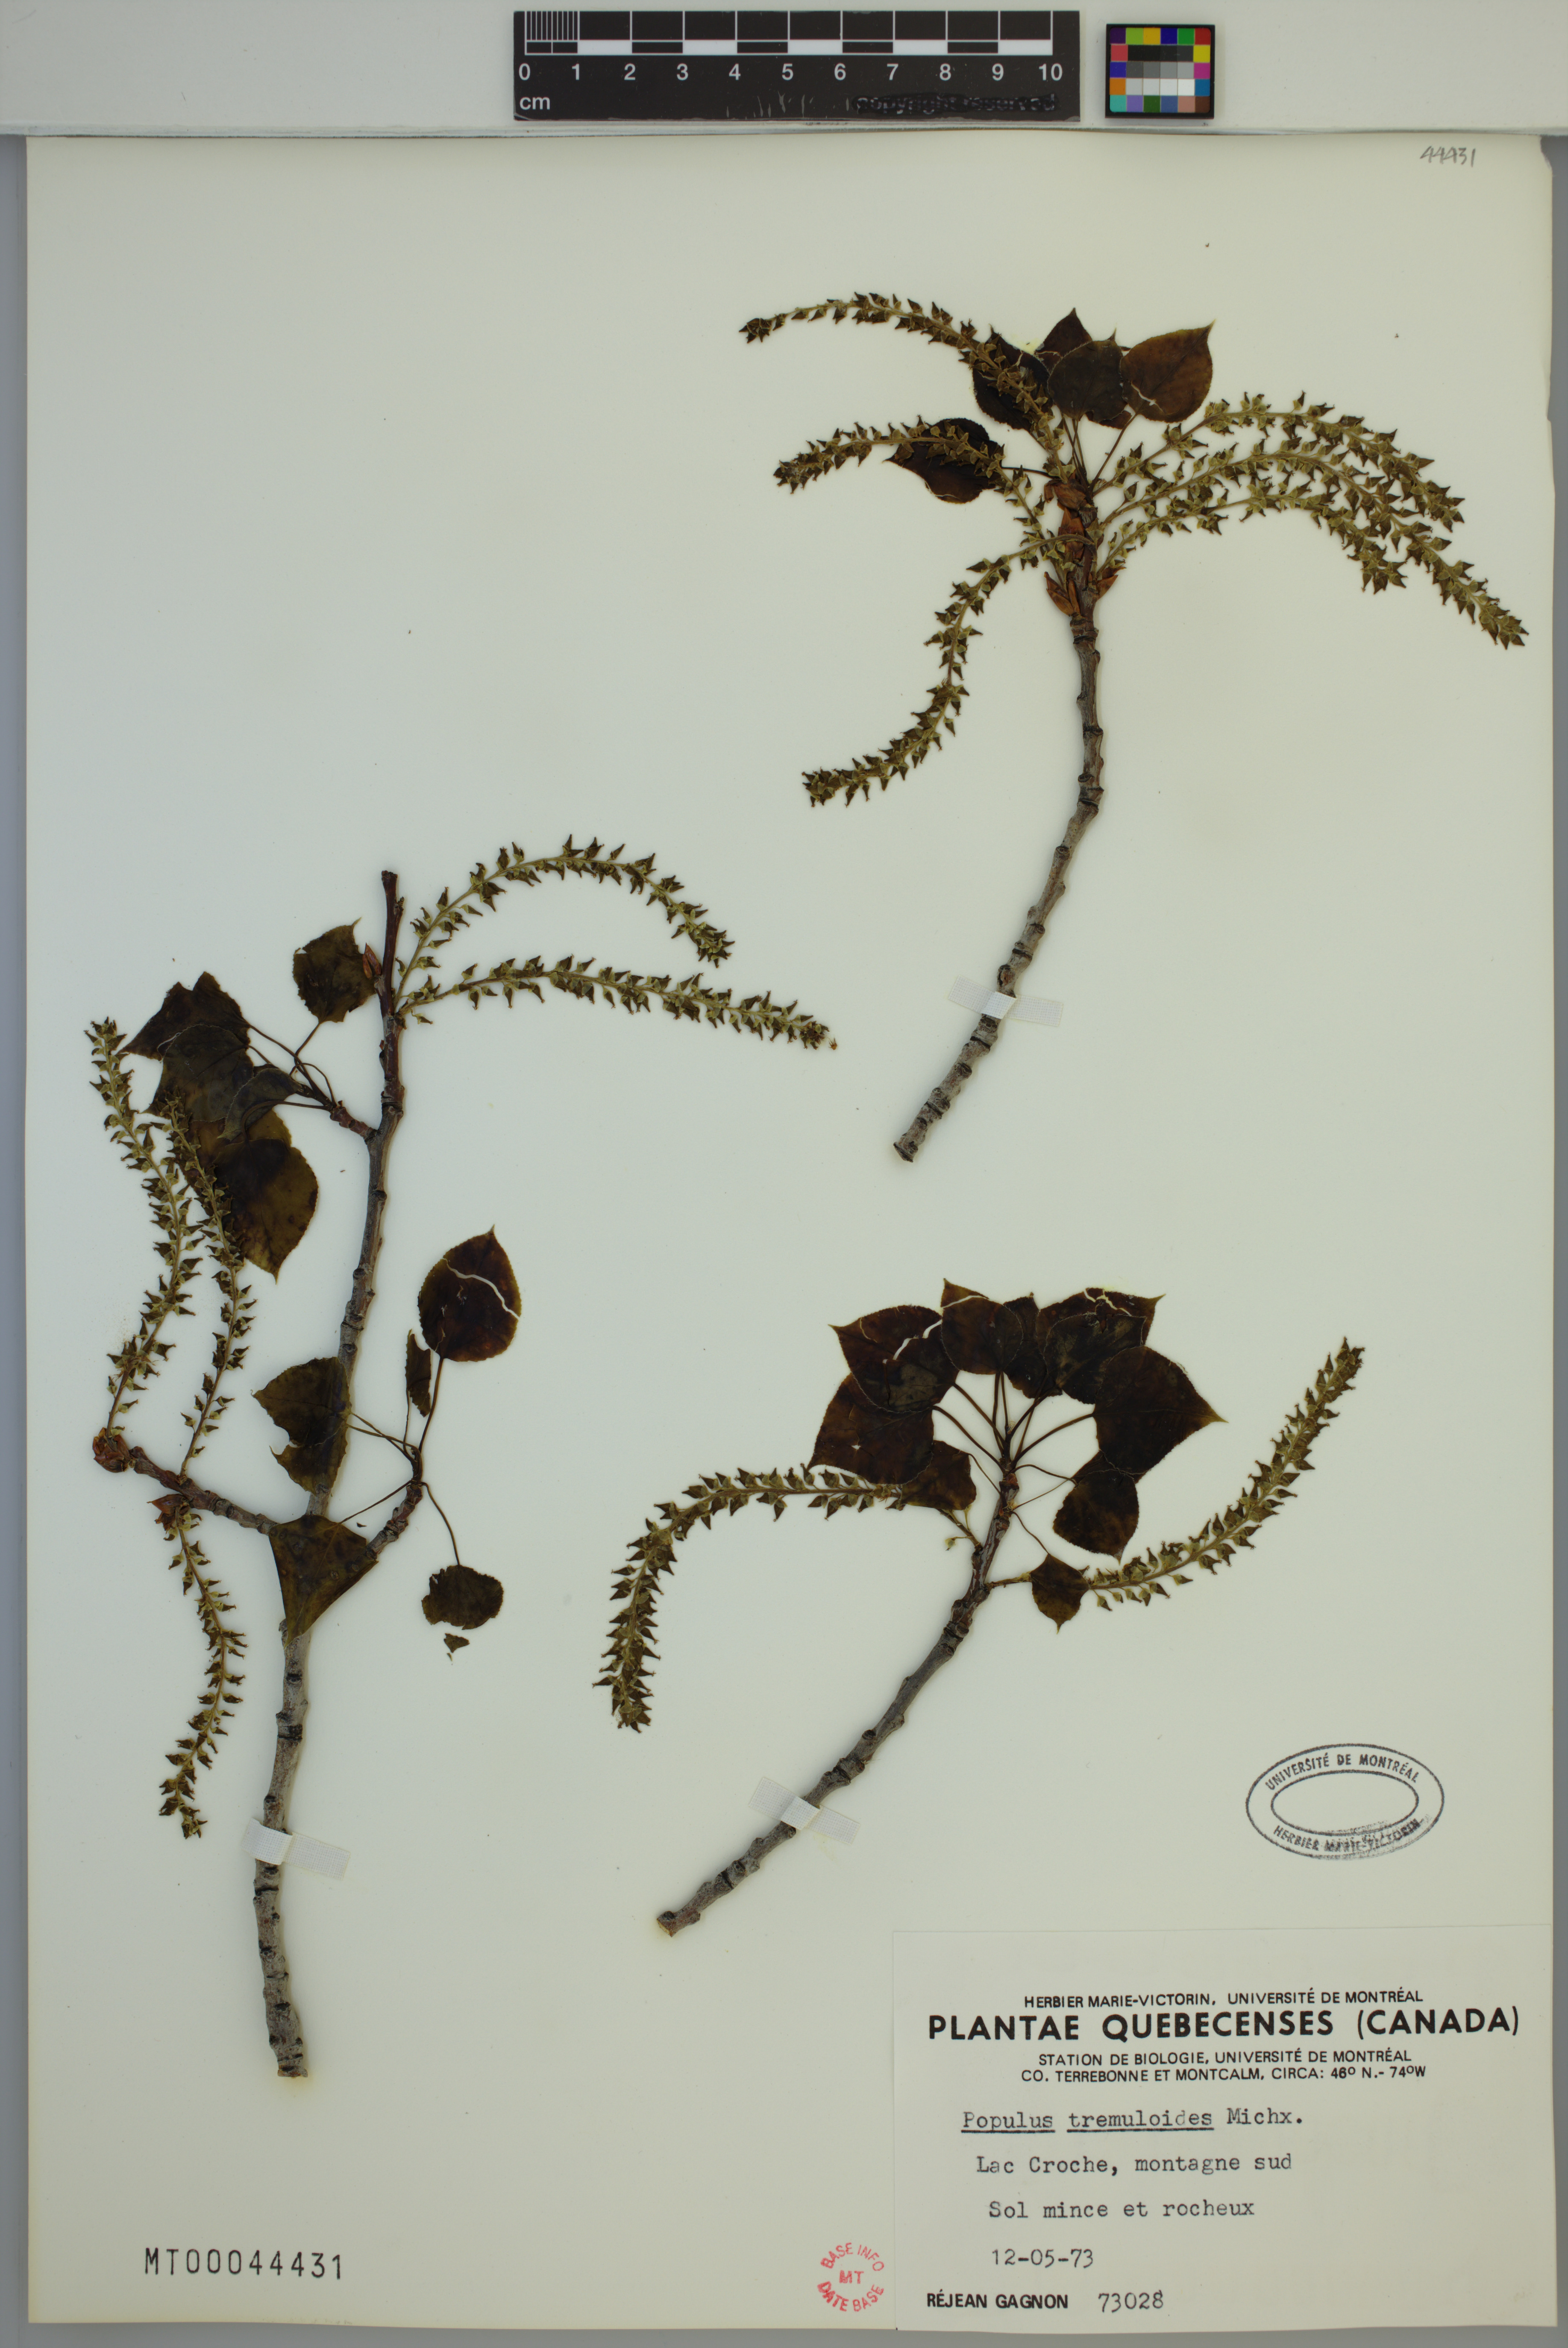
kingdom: Plantae
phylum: Tracheophyta
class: Magnoliopsida
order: Malpighiales
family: Salicaceae
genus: Populus
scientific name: Populus tremuloides
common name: Quaking aspen
